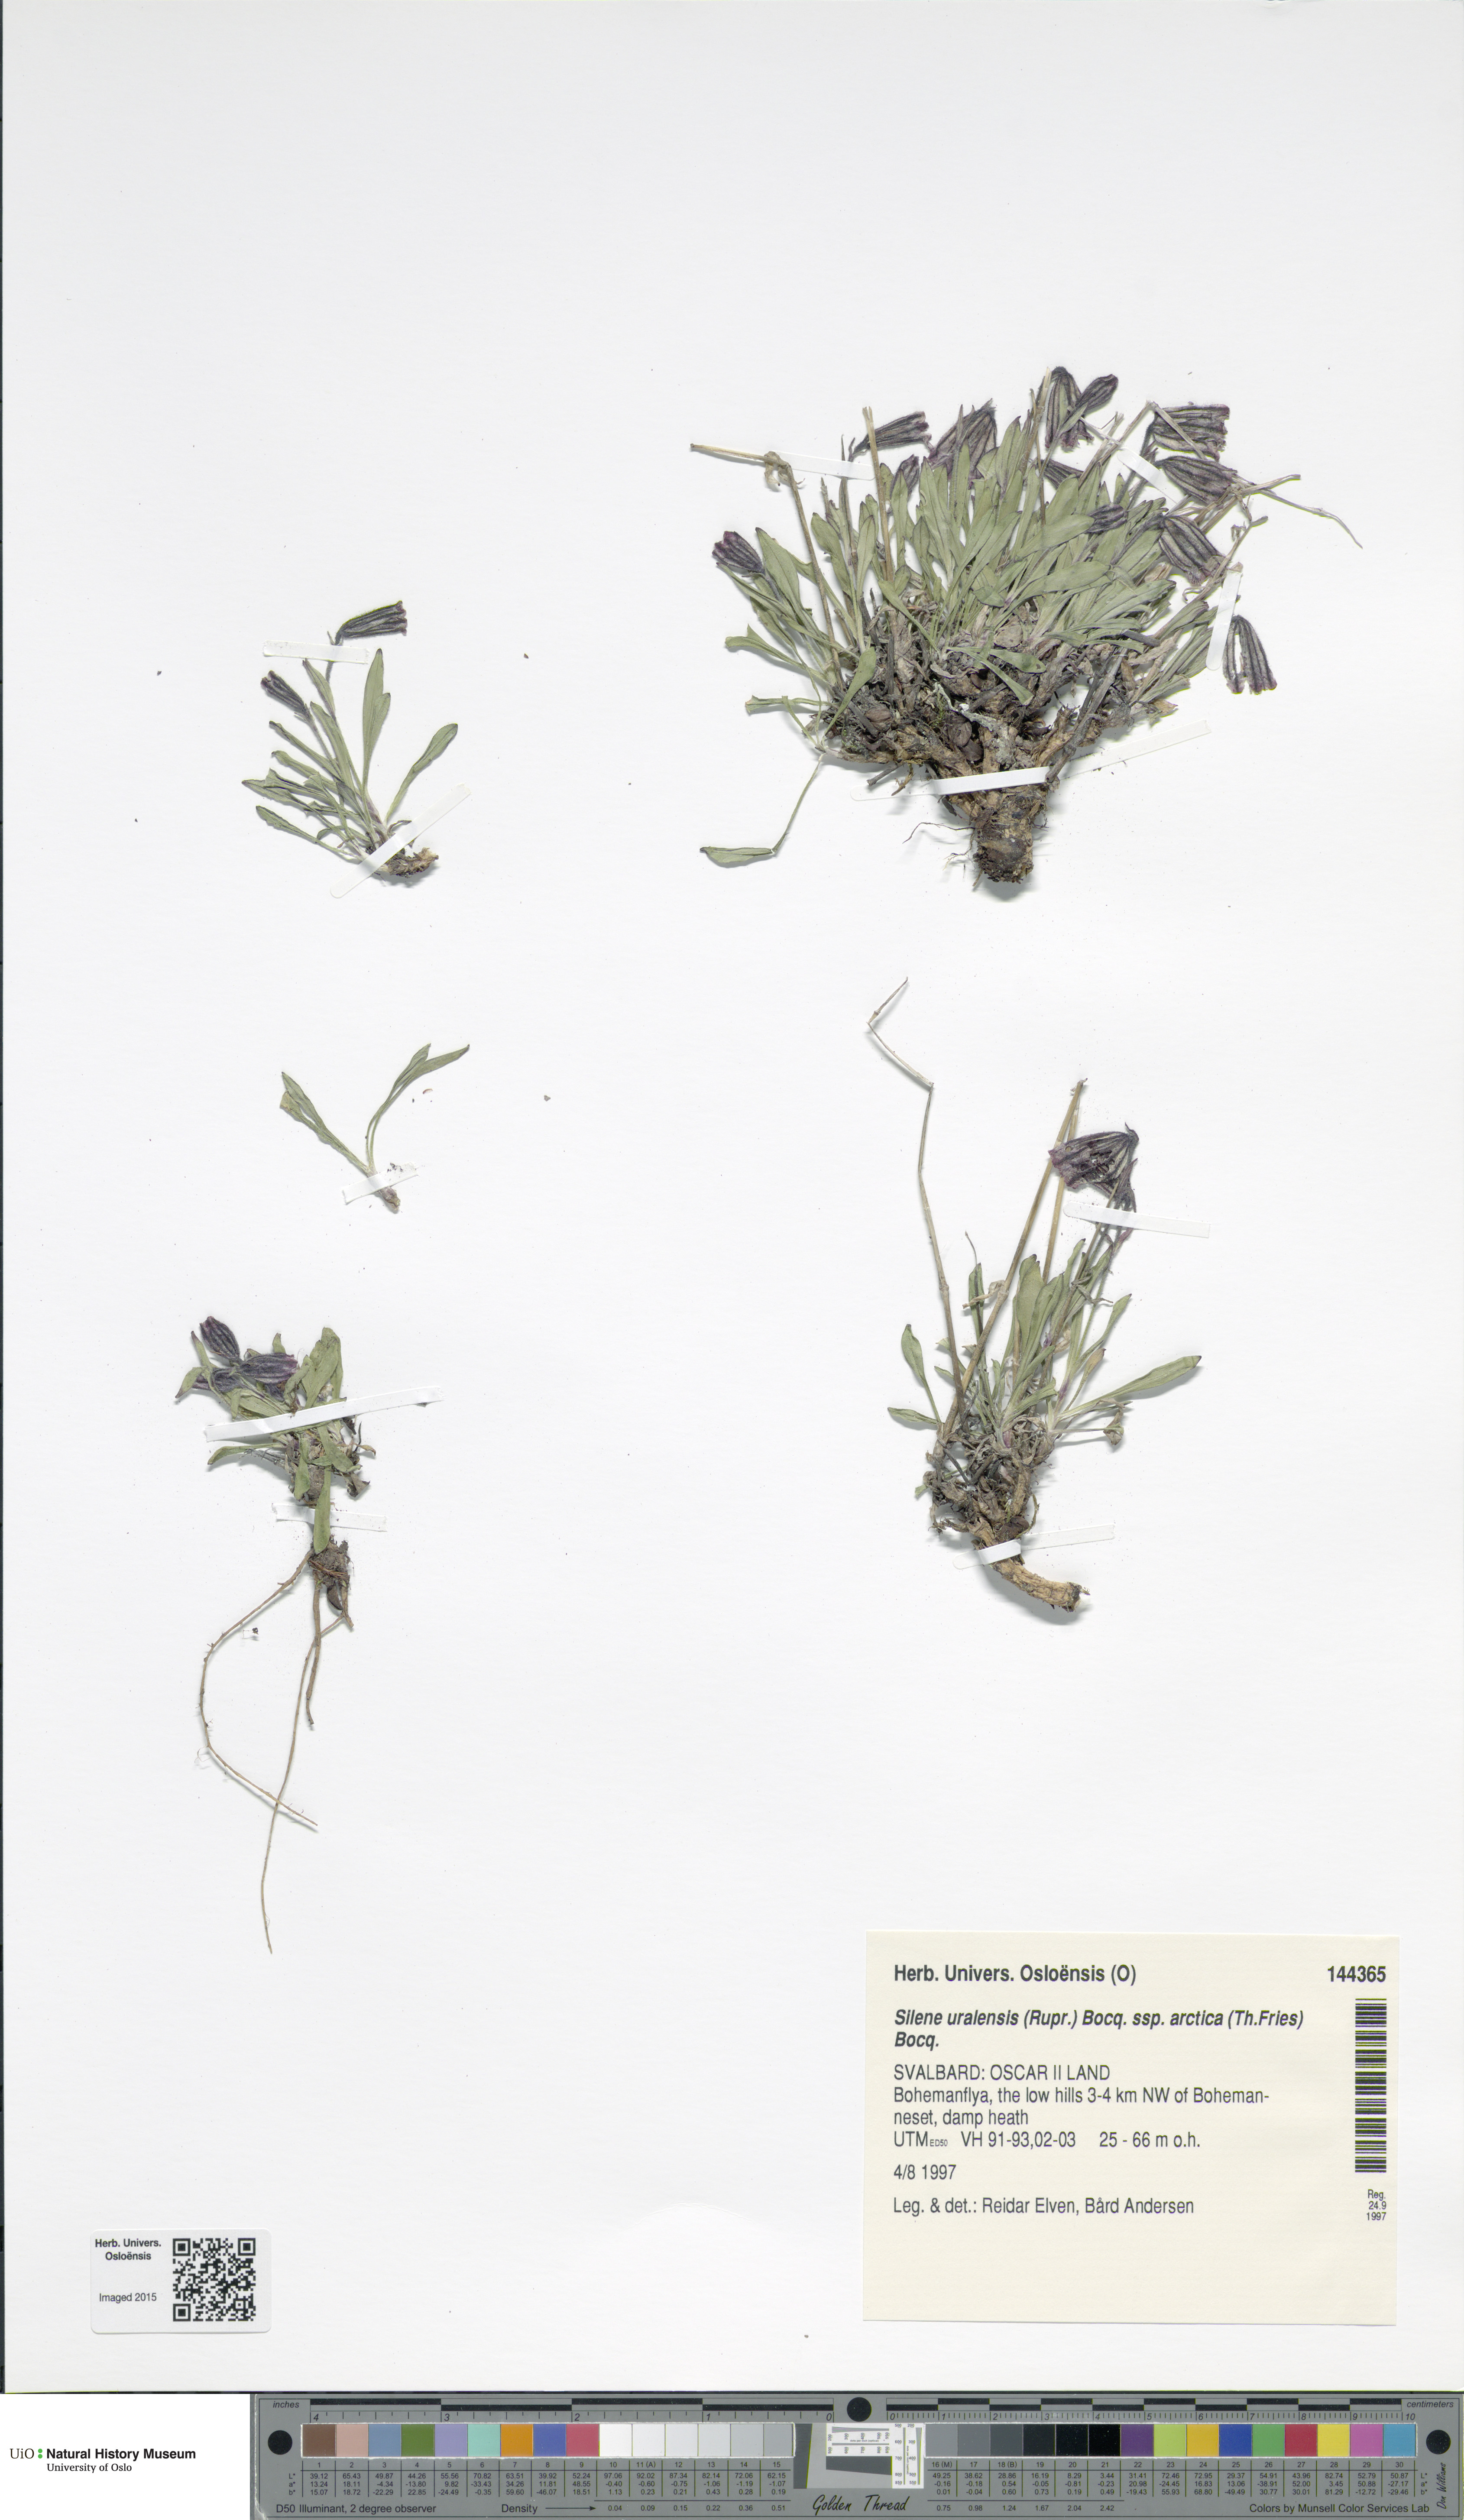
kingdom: Plantae
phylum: Tracheophyta
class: Magnoliopsida
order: Caryophyllales
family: Caryophyllaceae
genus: Silene
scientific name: Silene uralensis
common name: Nodding campion
